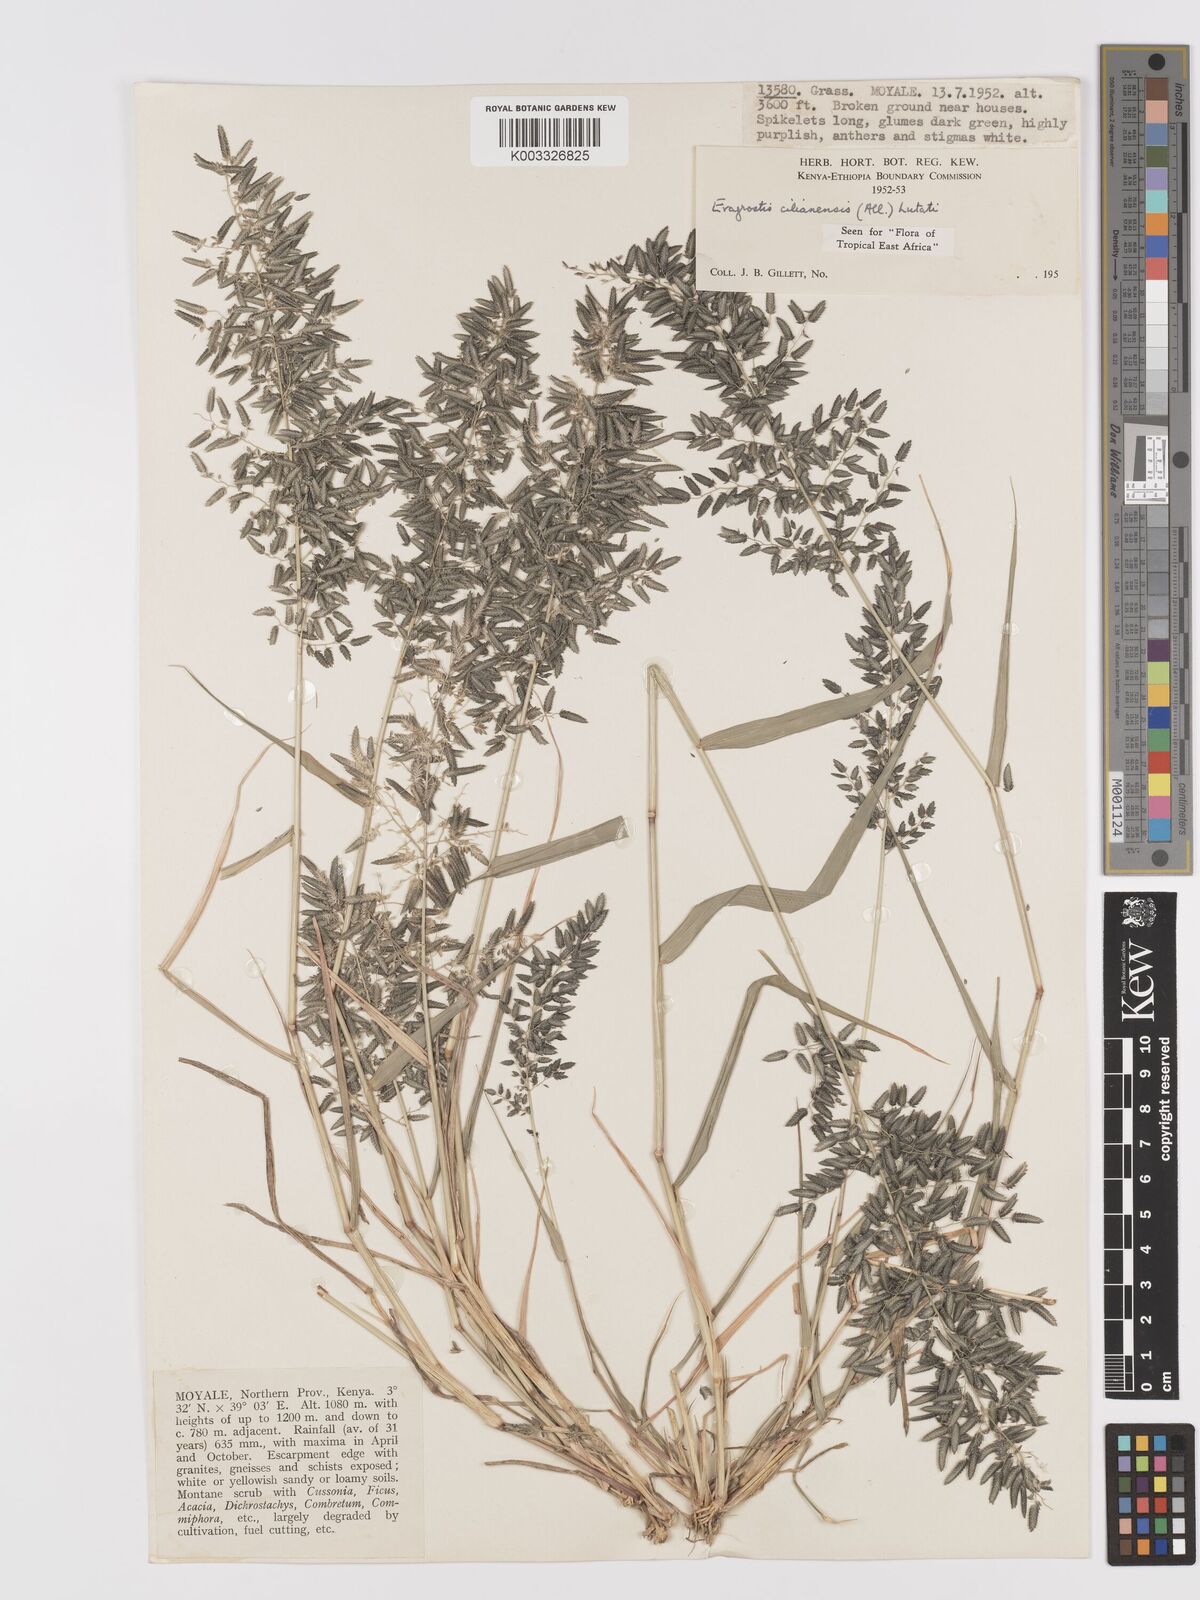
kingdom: Plantae
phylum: Tracheophyta
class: Liliopsida
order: Poales
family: Poaceae
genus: Eragrostis
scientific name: Eragrostis cilianensis
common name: Stinkgrass
